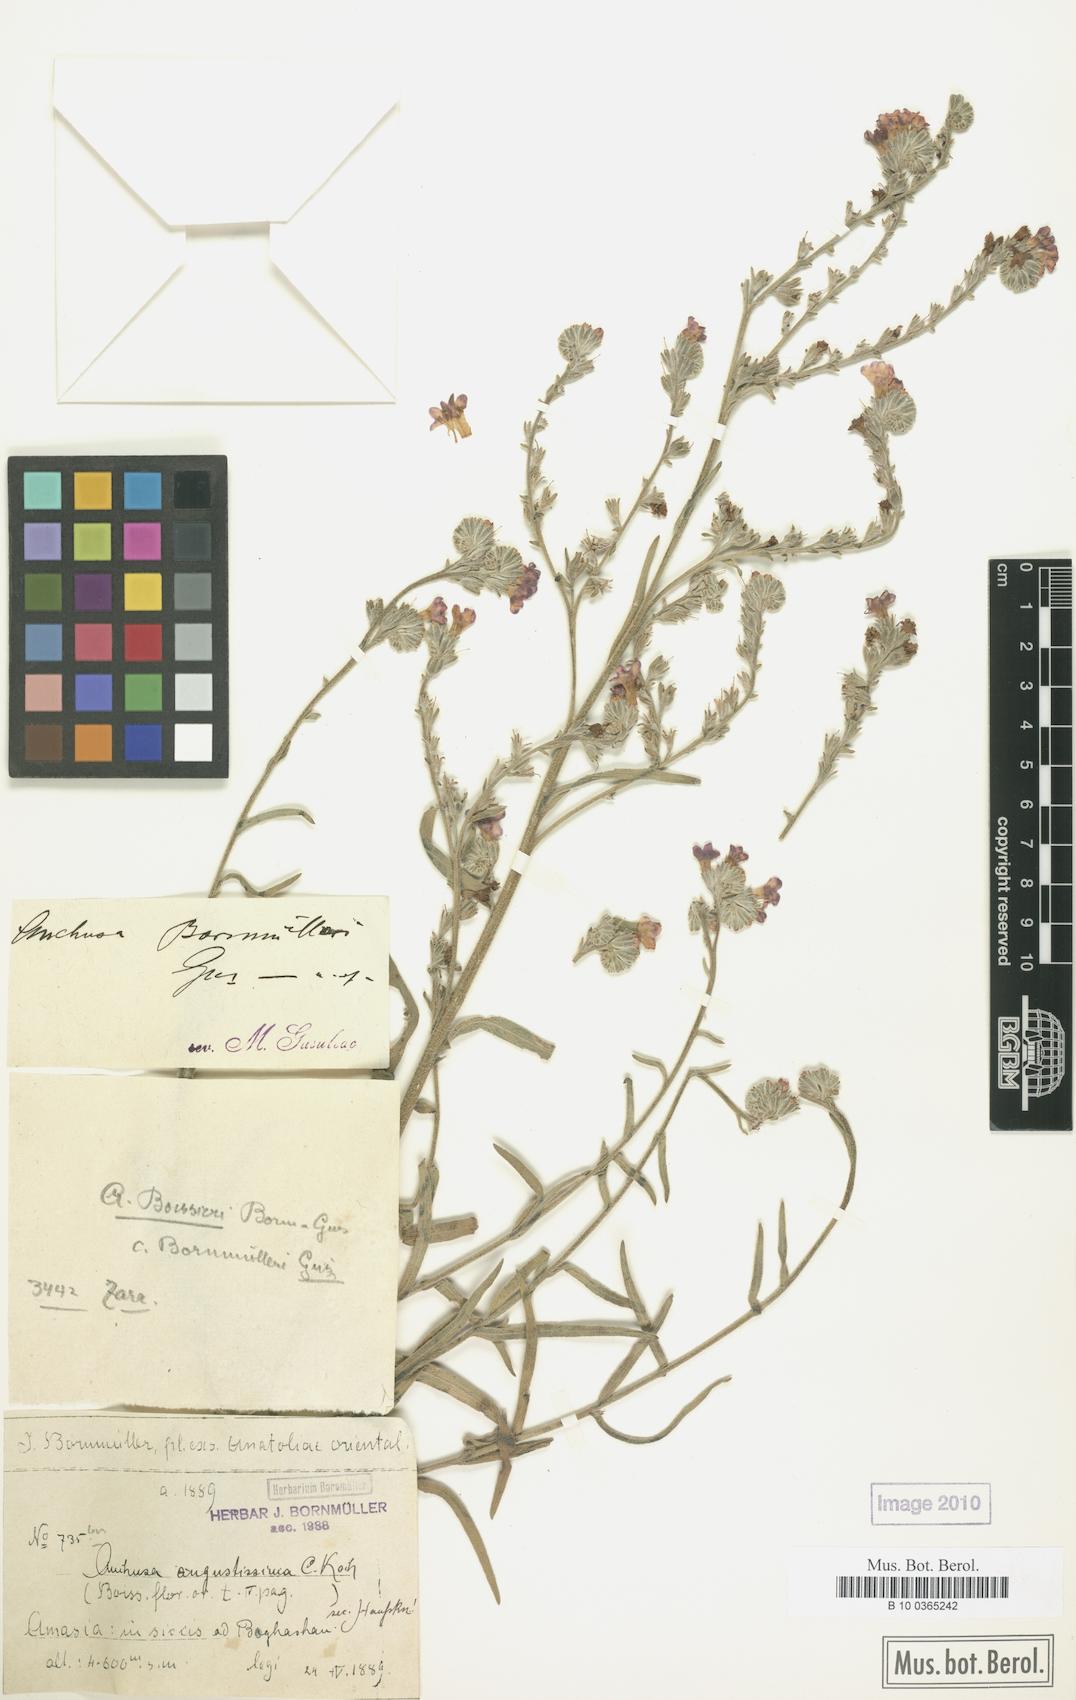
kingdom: Plantae
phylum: Tracheophyta
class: Magnoliopsida
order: Boraginales
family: Boraginaceae
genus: Anchusa
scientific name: Anchusa leptophylla
